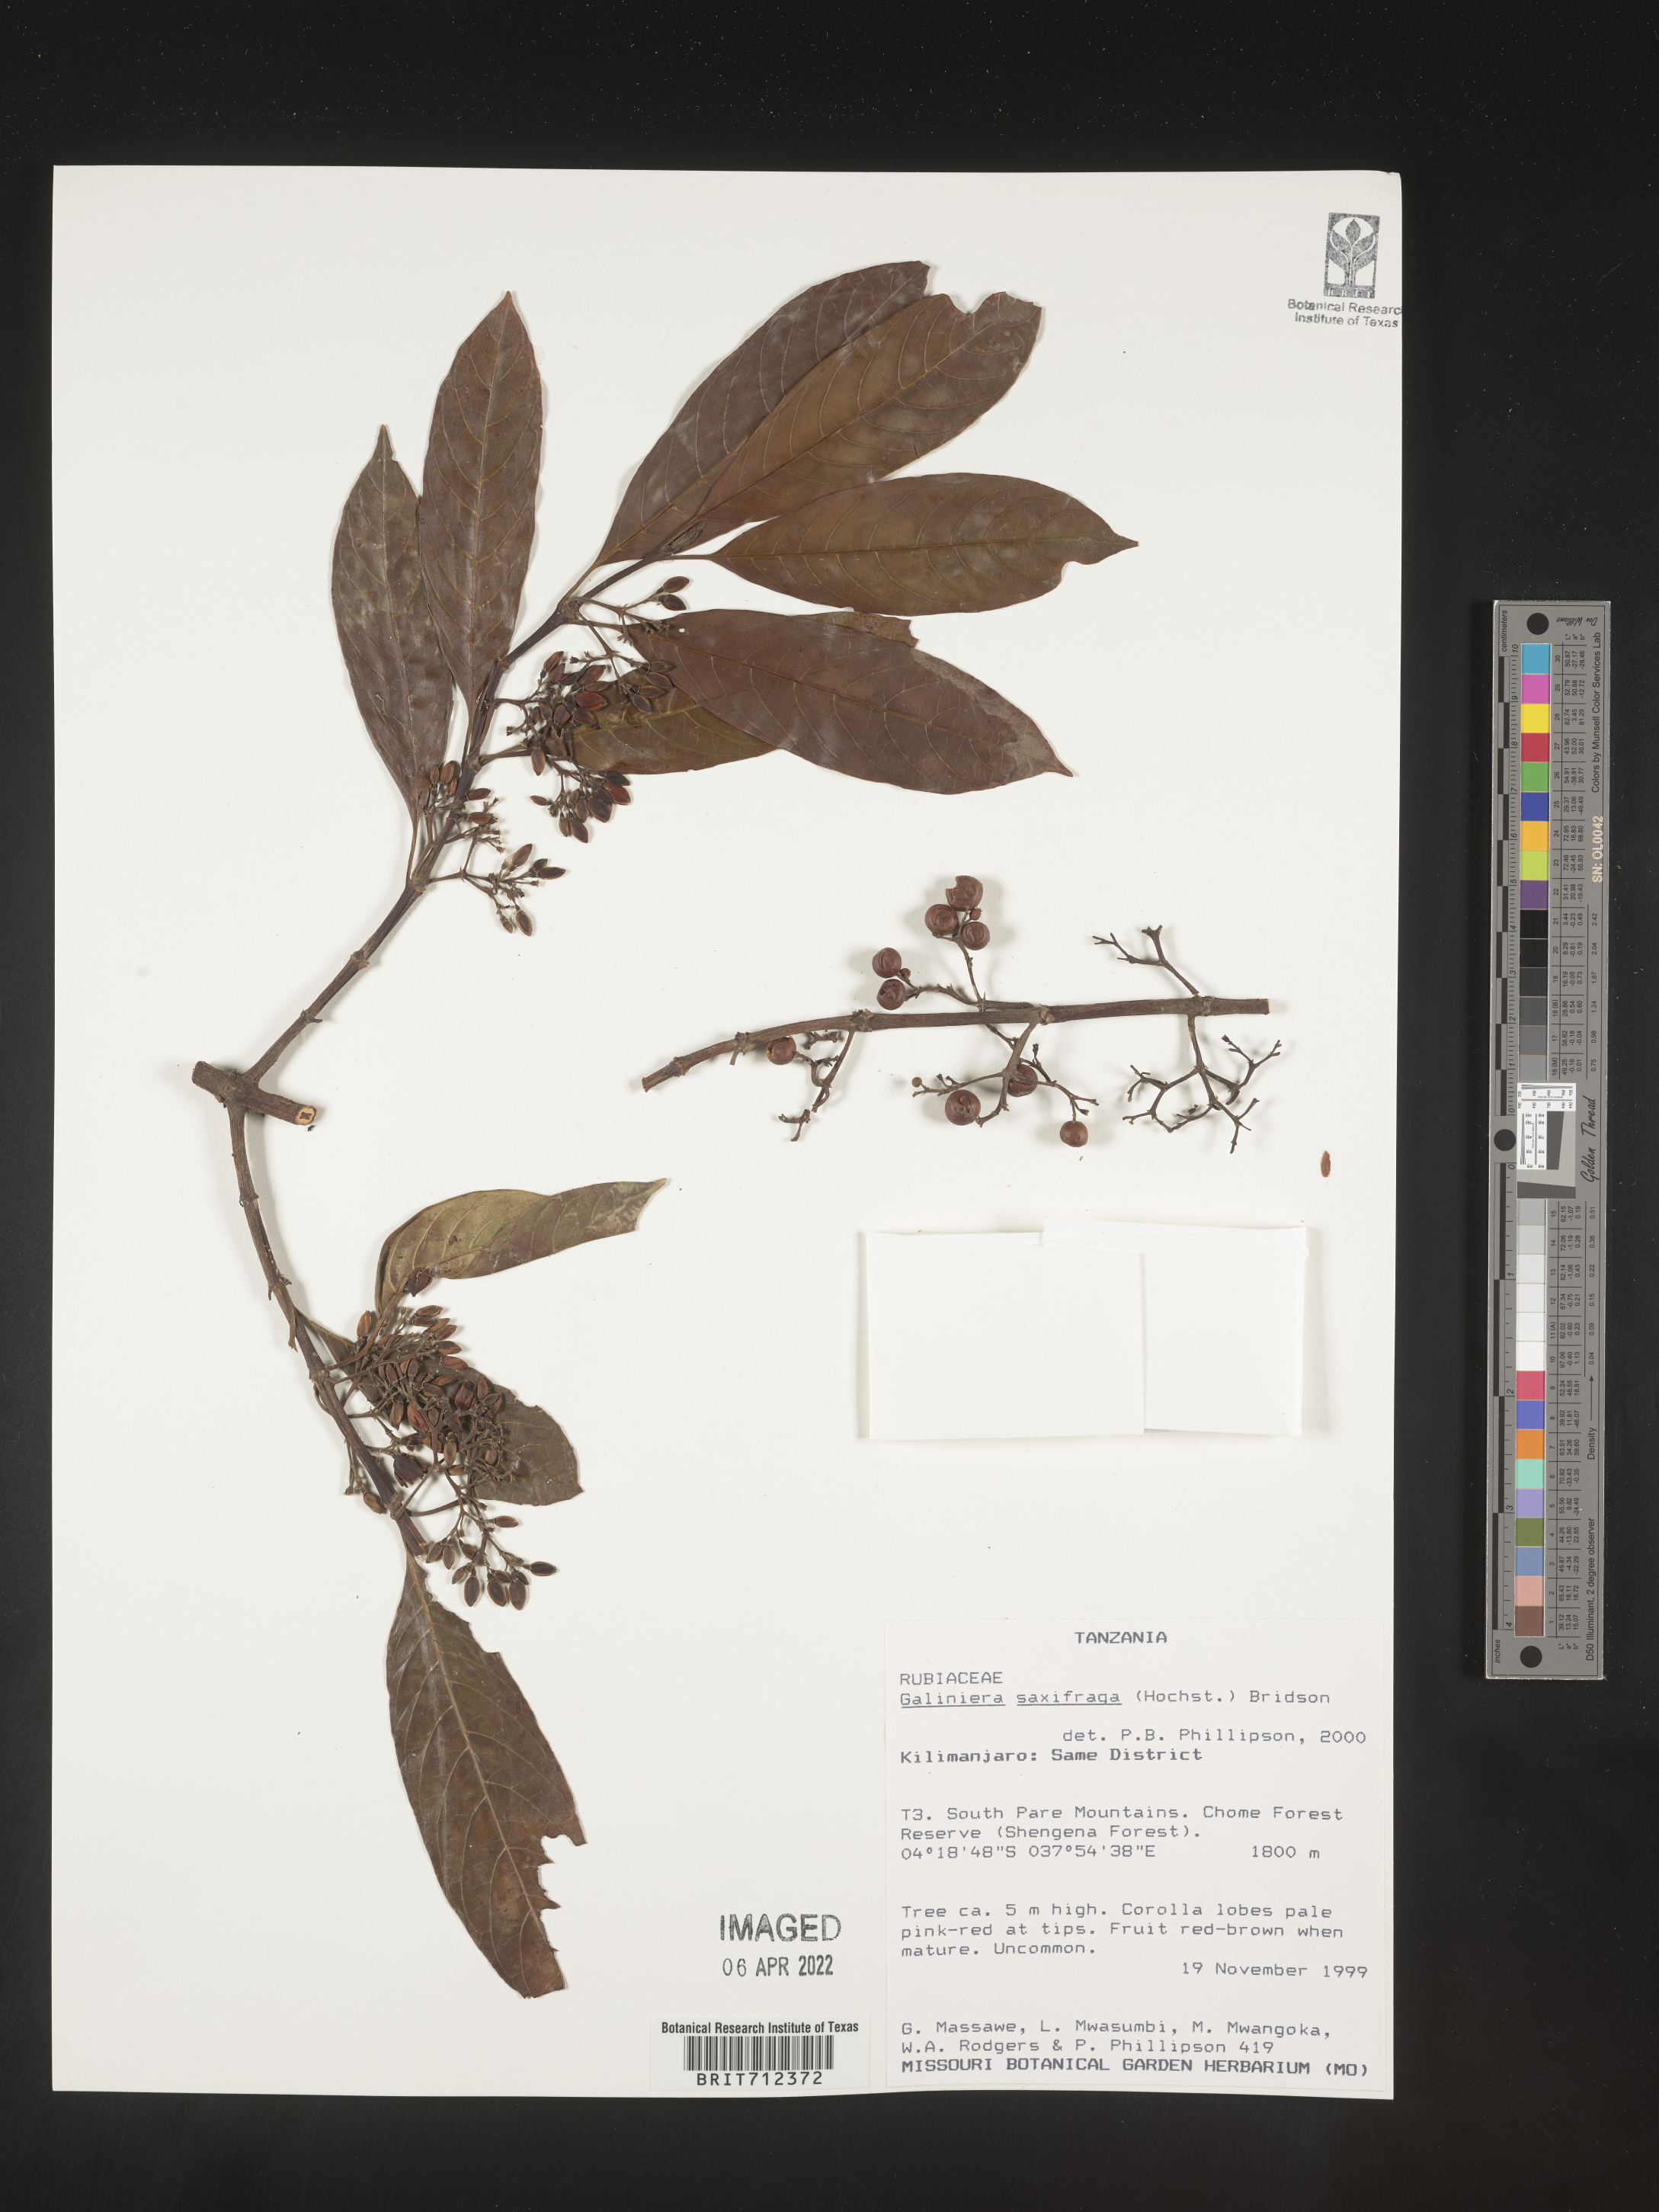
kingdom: Plantae
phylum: Tracheophyta
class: Magnoliopsida
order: Gentianales
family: Rubiaceae
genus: Galiniera
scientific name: Galiniera
